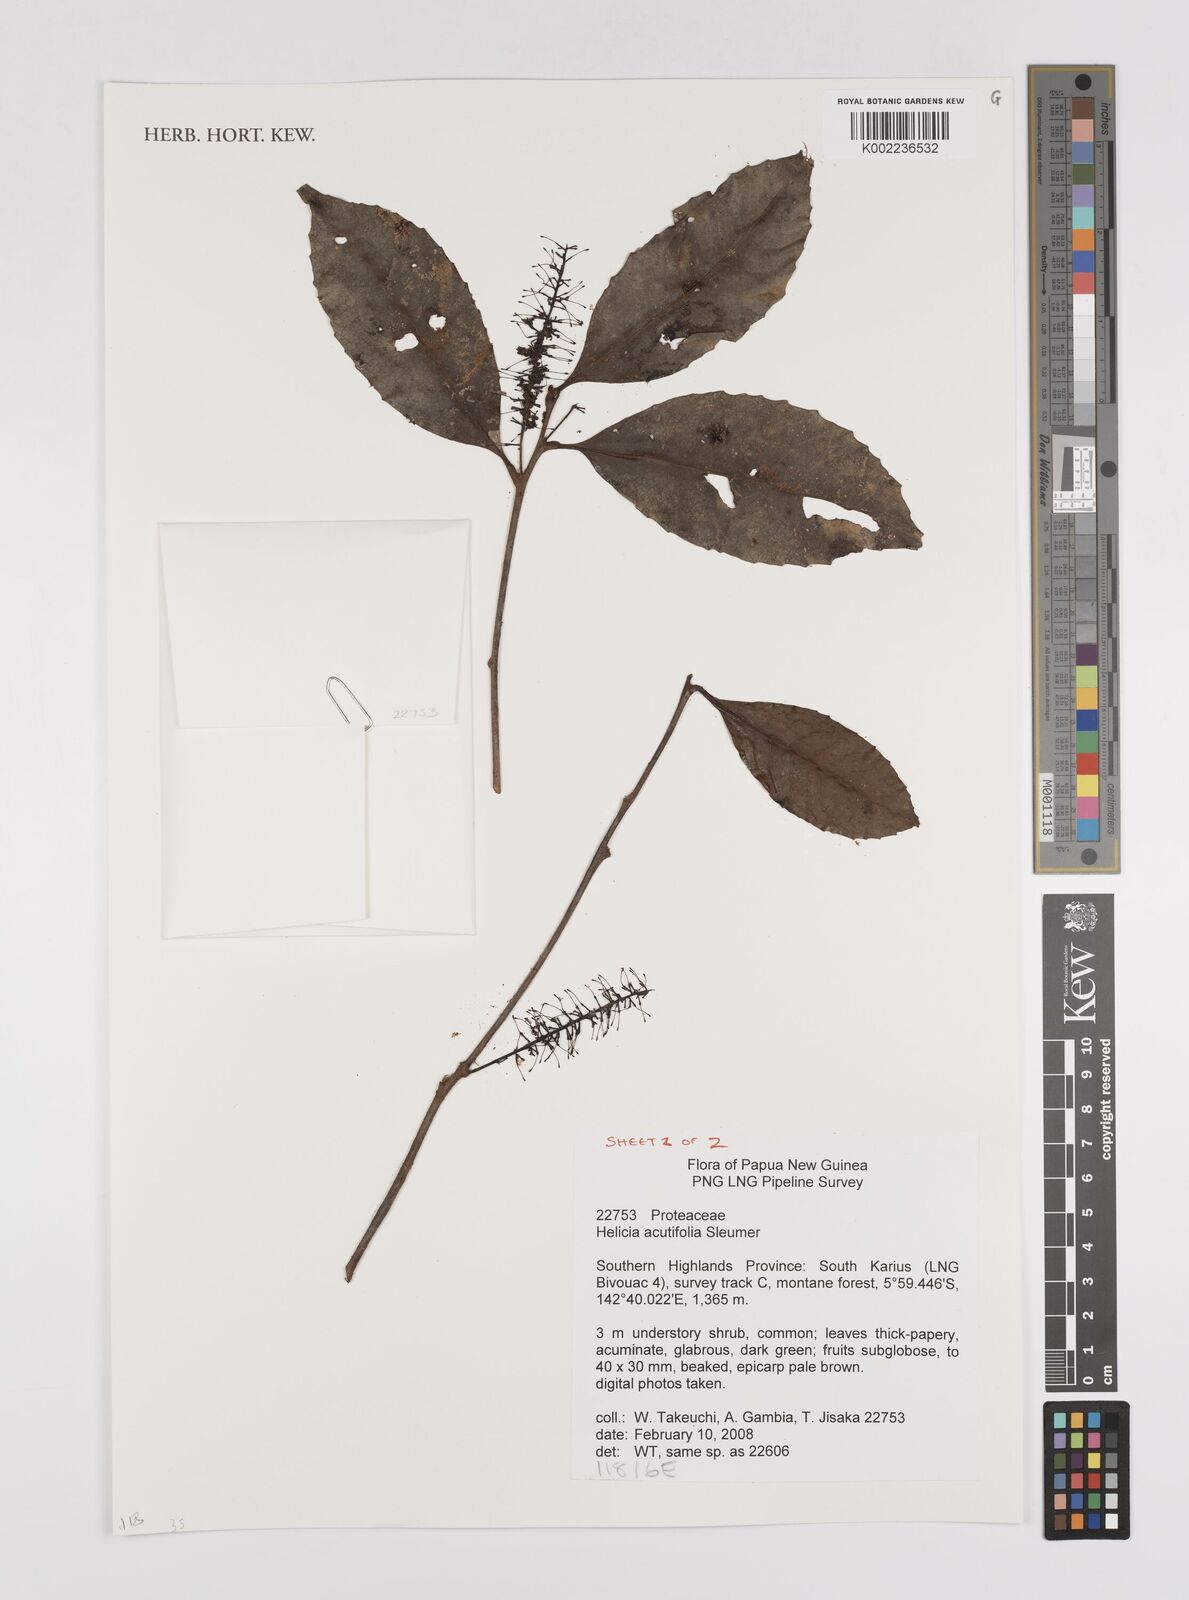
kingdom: Plantae
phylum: Tracheophyta
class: Magnoliopsida
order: Proteales
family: Proteaceae
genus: Helicia
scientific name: Helicia acutifolia
